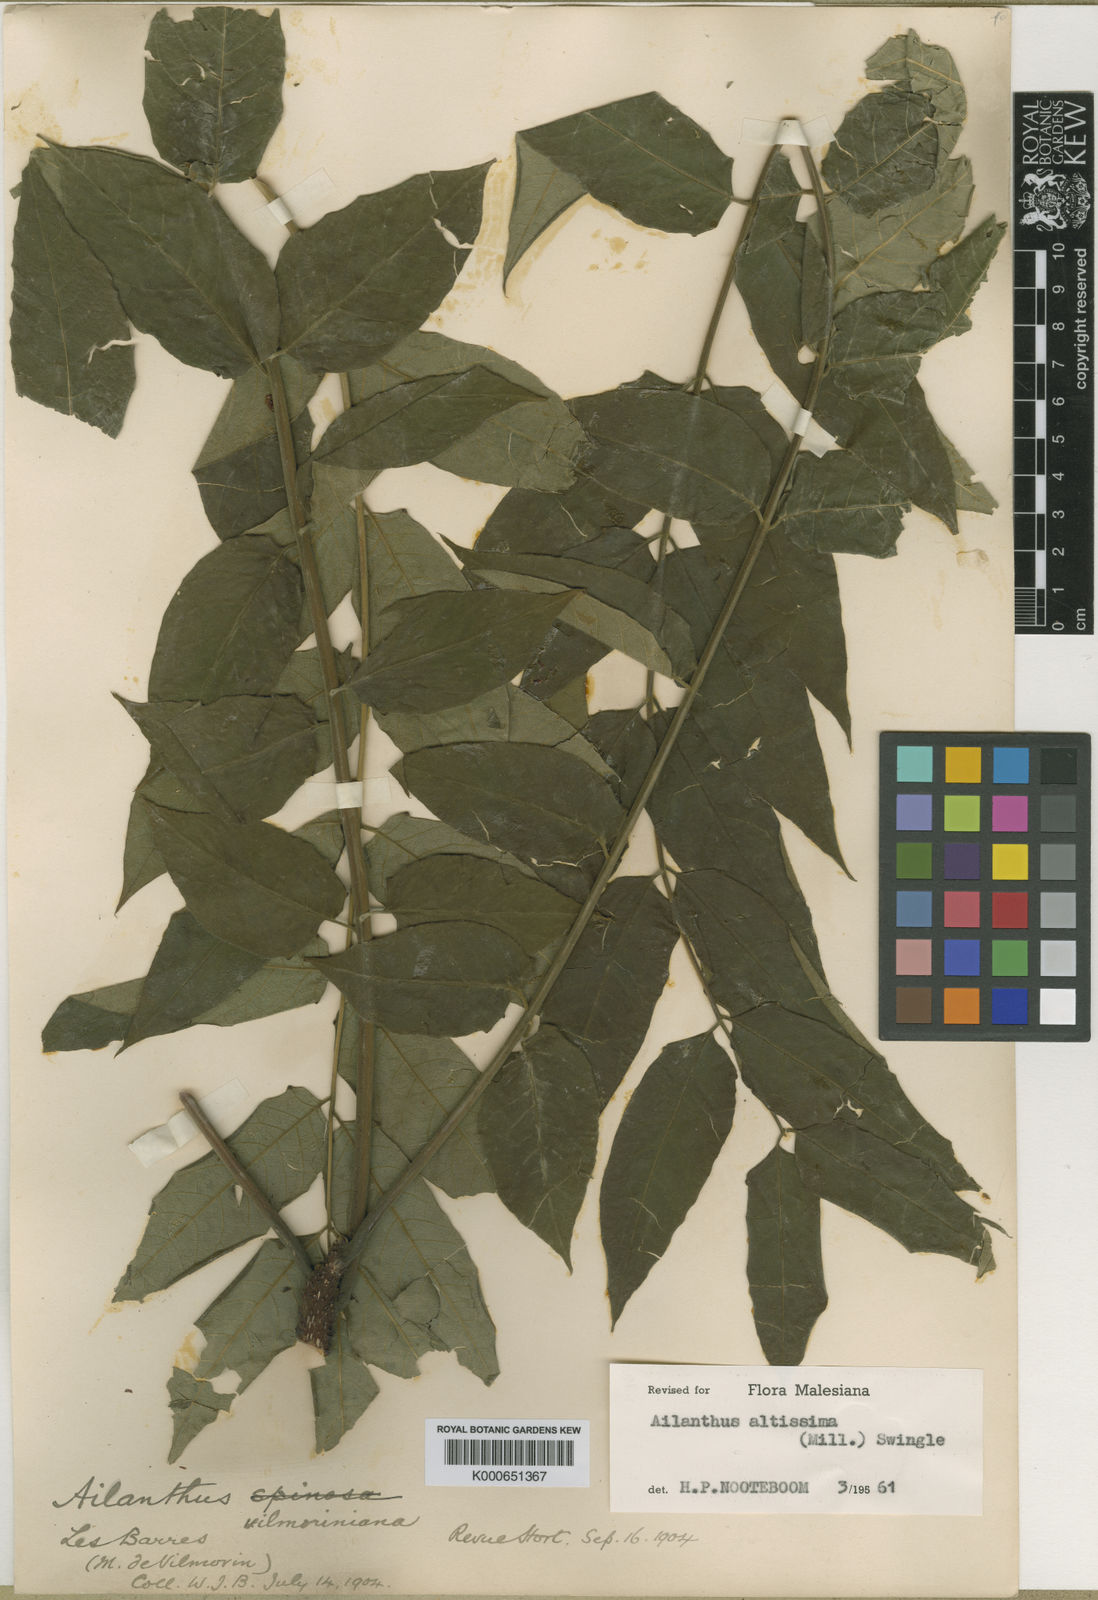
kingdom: Plantae
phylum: Tracheophyta
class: Magnoliopsida
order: Sapindales
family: Simaroubaceae
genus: Ailanthus
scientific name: Ailanthus altissima
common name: Tree-of-heaven
